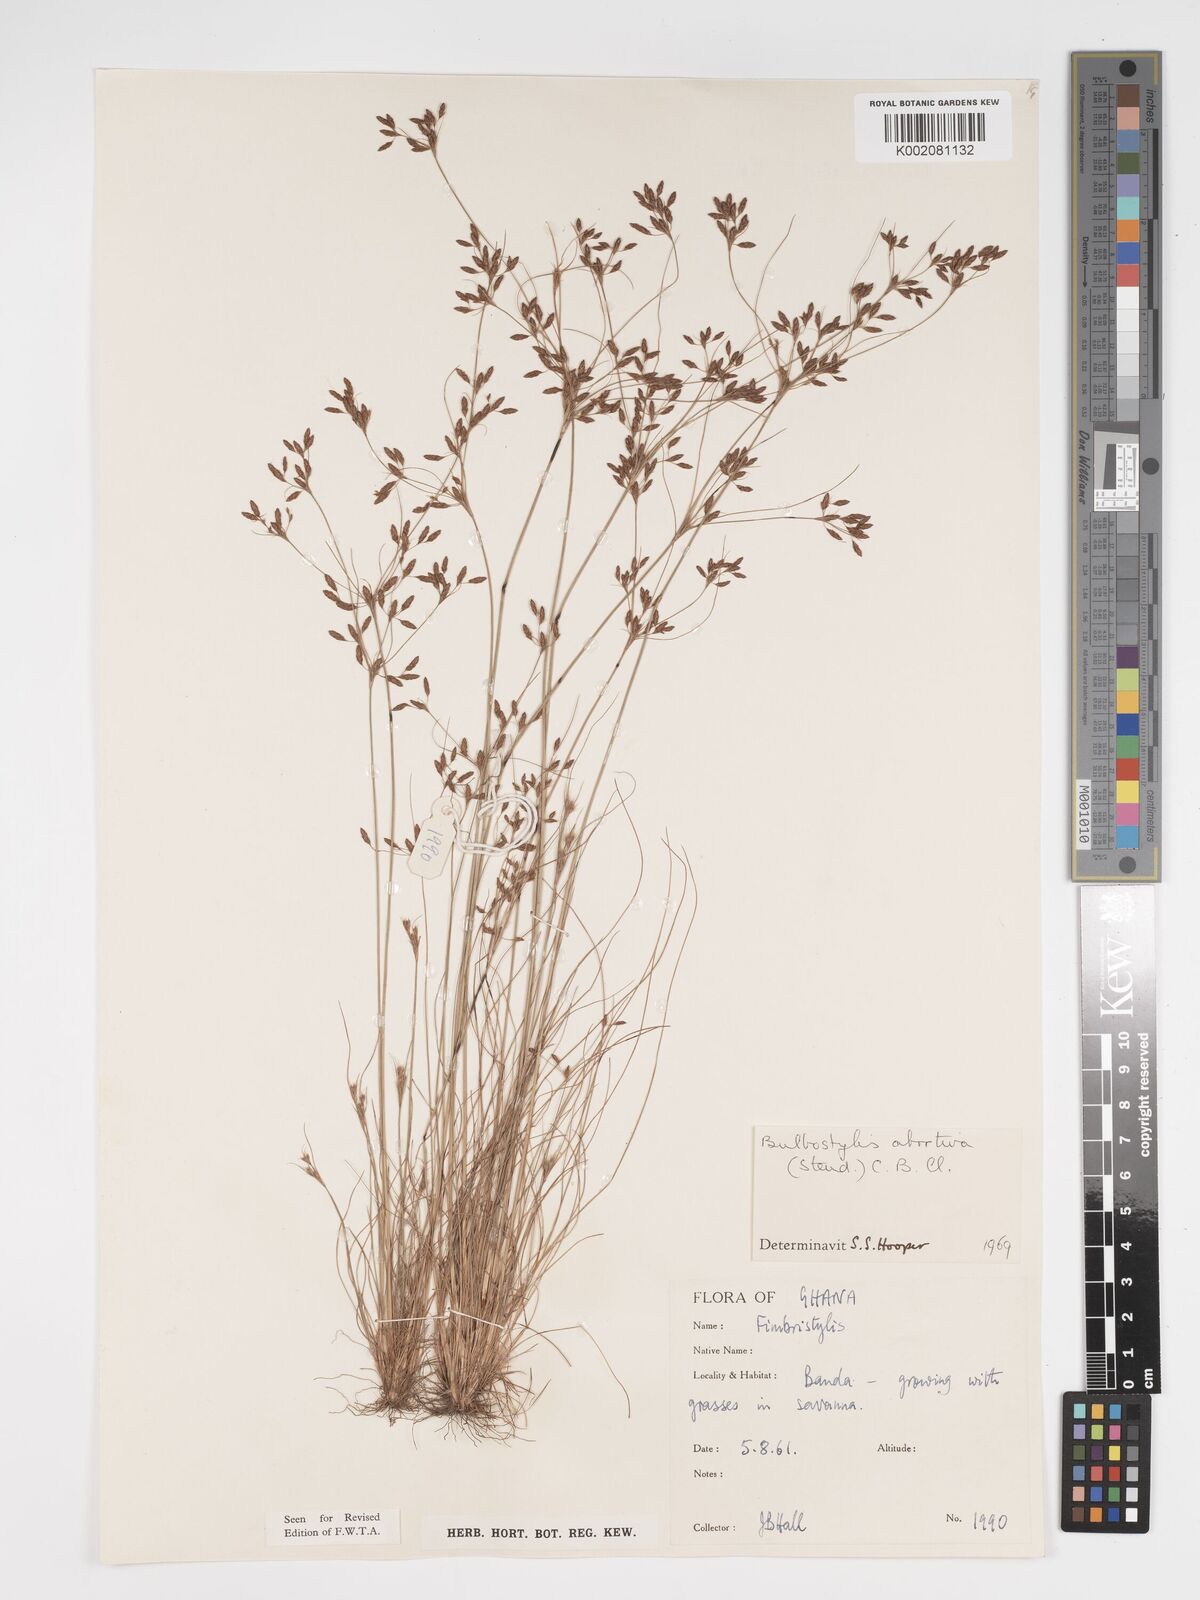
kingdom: Plantae
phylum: Tracheophyta
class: Liliopsida
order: Poales
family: Cyperaceae
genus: Bulbostylis
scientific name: Bulbostylis abortiva
